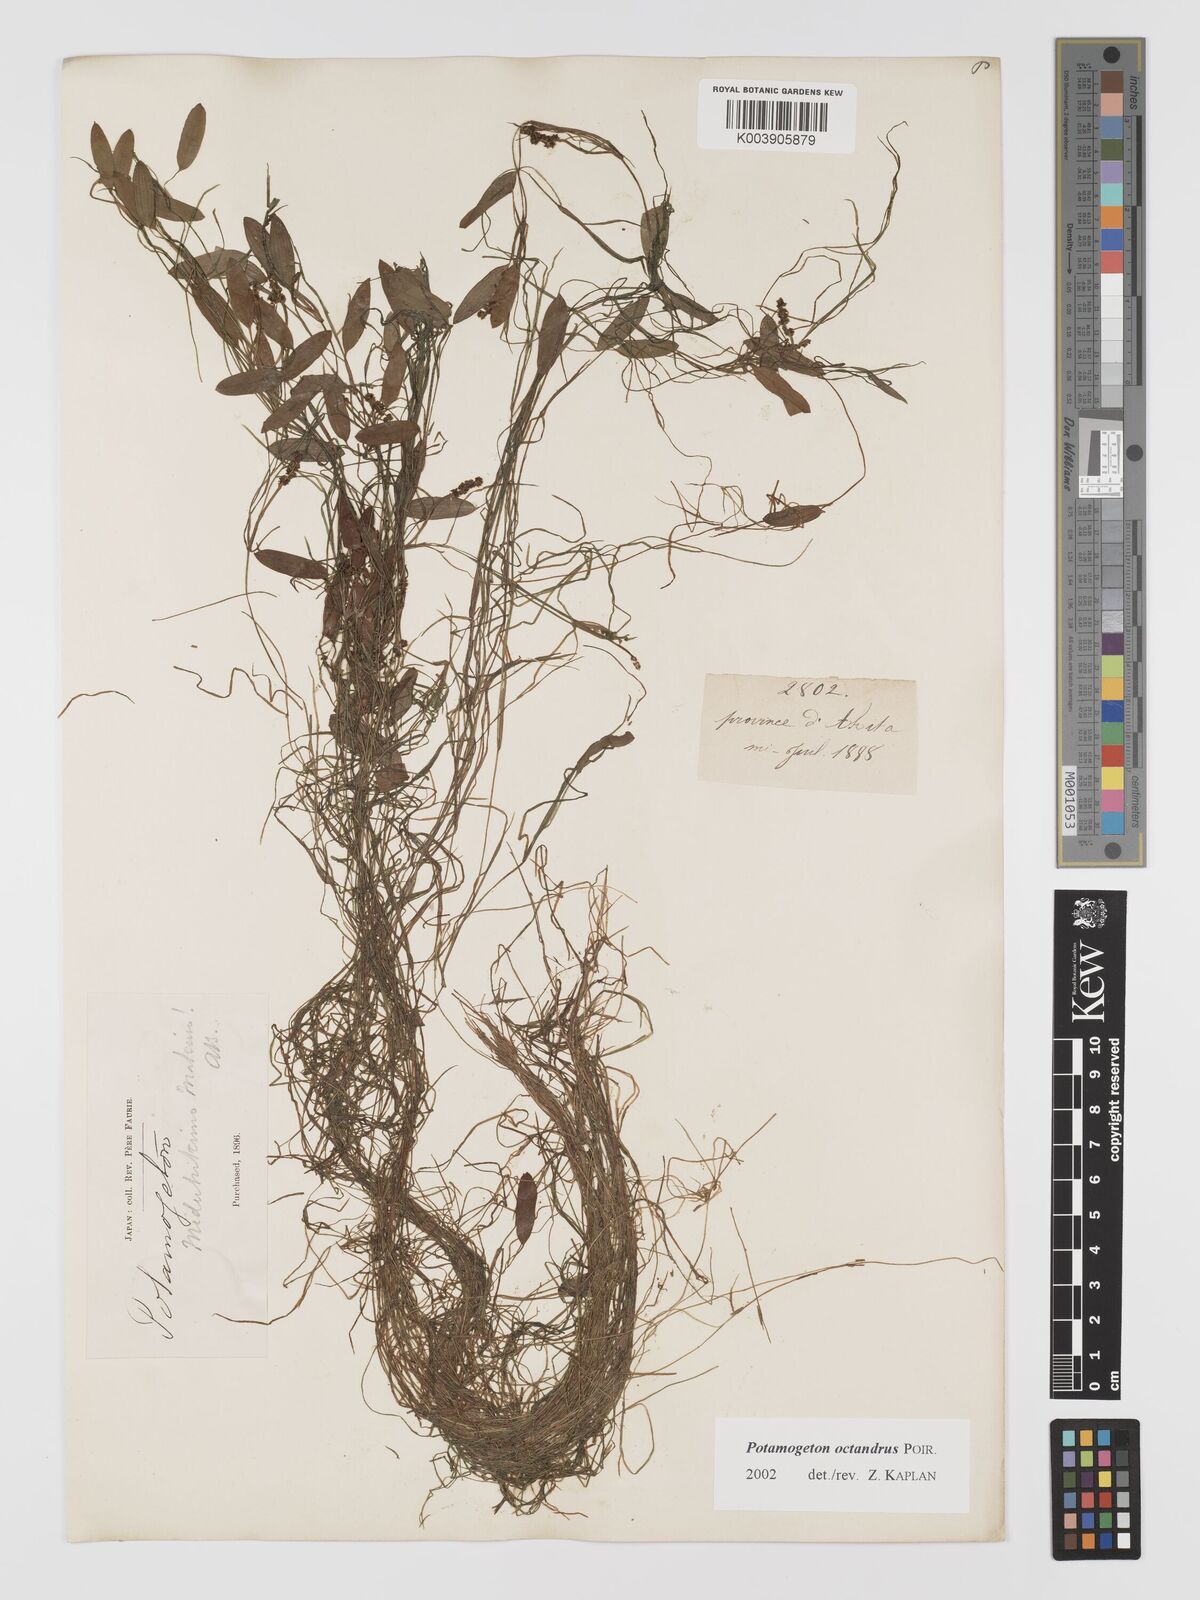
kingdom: Plantae
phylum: Tracheophyta
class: Liliopsida
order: Alismatales
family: Potamogetonaceae
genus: Potamogeton
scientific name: Potamogeton octandrus
